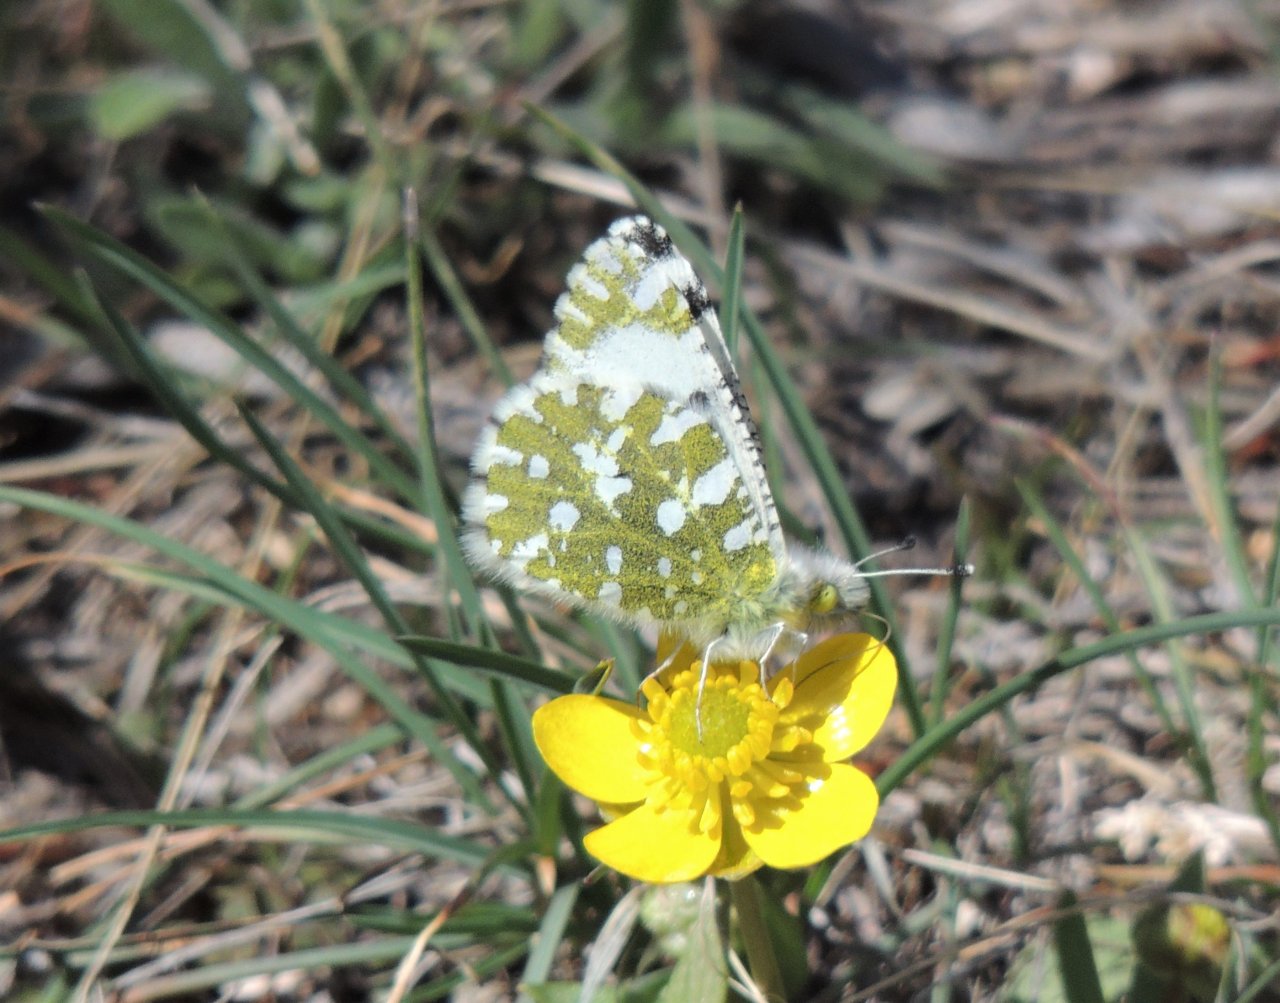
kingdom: Animalia
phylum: Arthropoda
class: Insecta
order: Lepidoptera
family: Pieridae
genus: Euchloe
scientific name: Euchloe lotta
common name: Desert Marble
